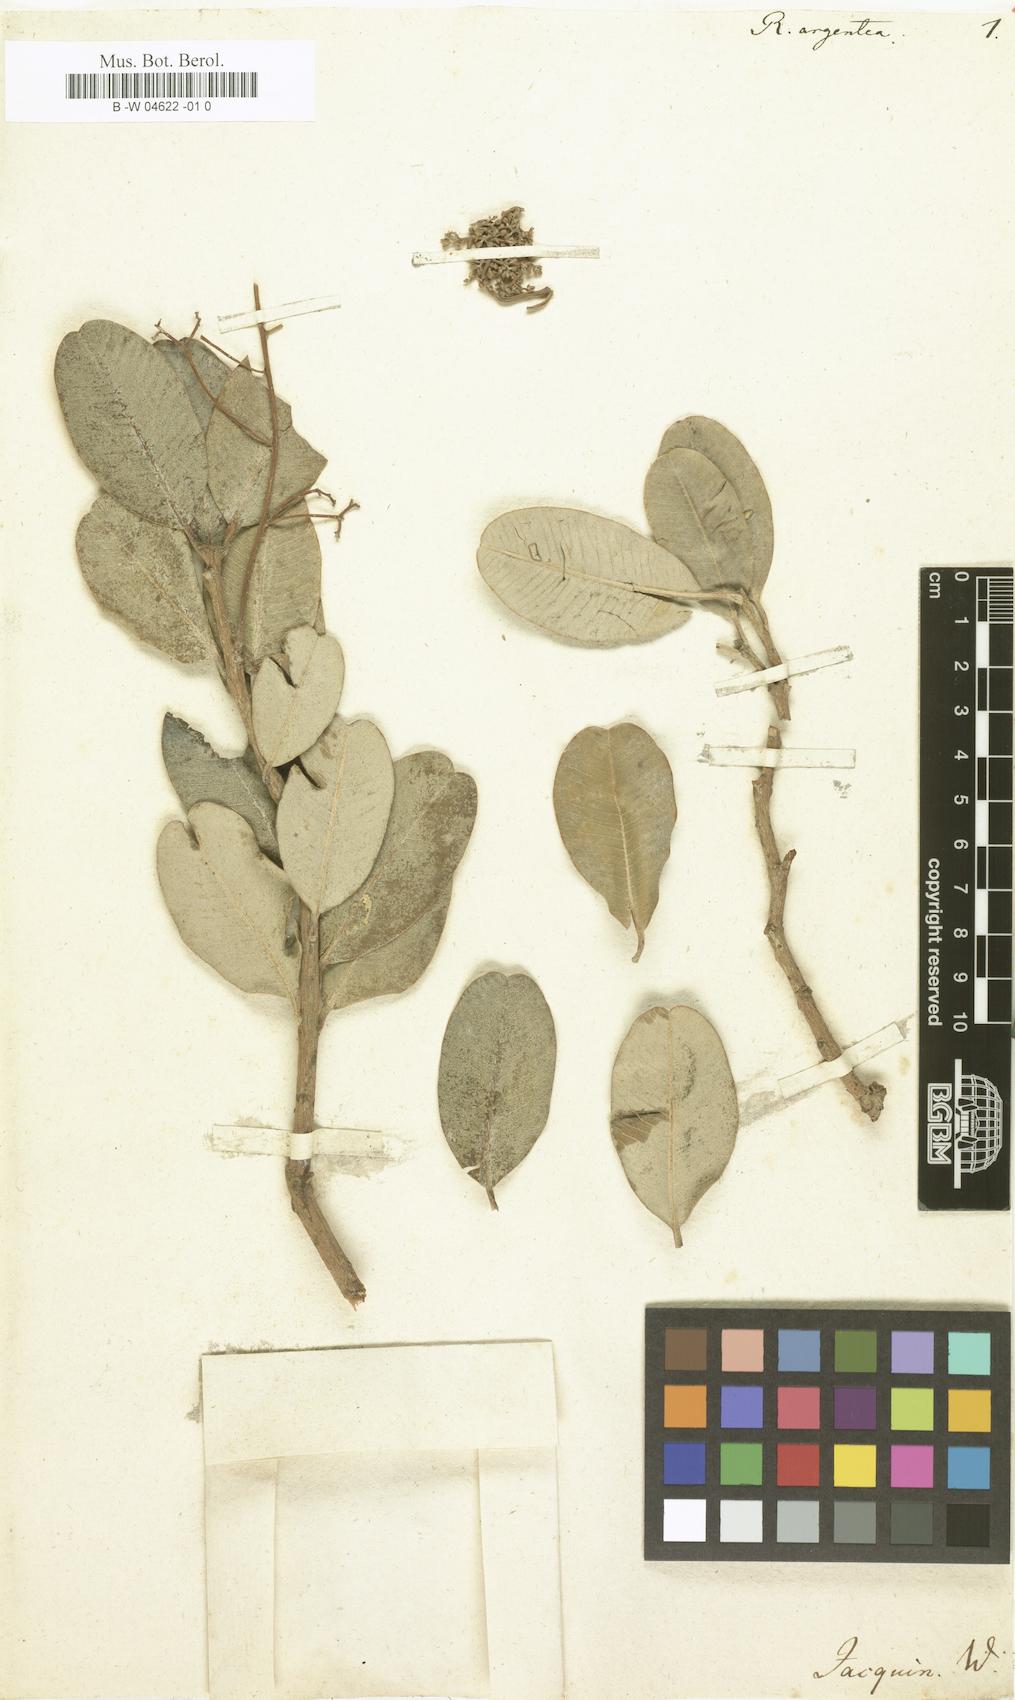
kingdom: Plantae
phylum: Tracheophyta
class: Magnoliopsida
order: Sapindales
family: Anacardiaceae
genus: Heeria
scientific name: Heeria argentea
